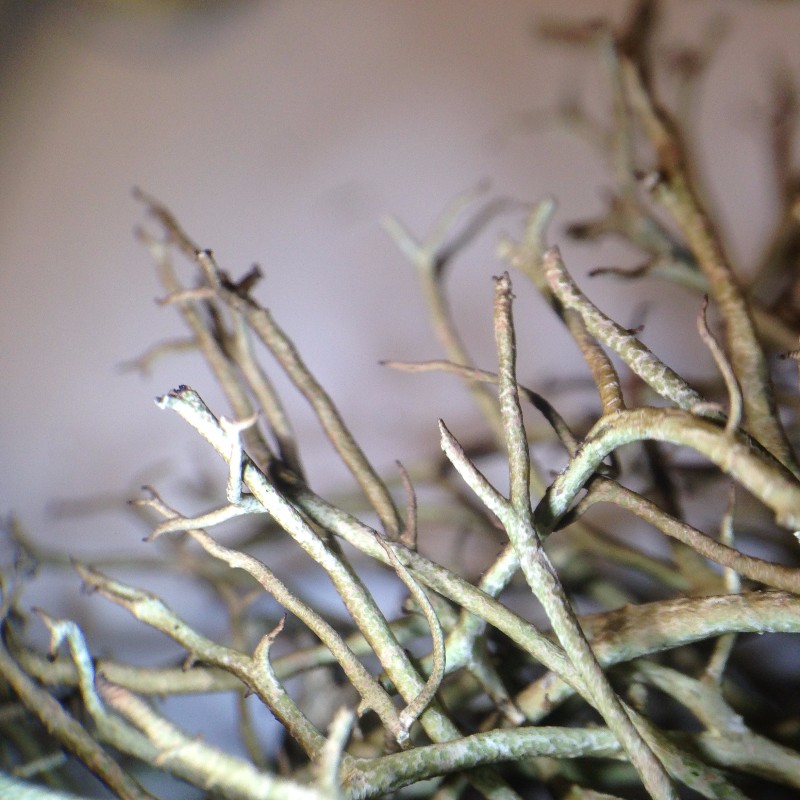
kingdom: Fungi
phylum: Ascomycota
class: Lecanoromycetes
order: Lecanorales
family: Cladoniaceae
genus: Cladonia
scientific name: Cladonia furcata
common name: kløftet bægerlav
